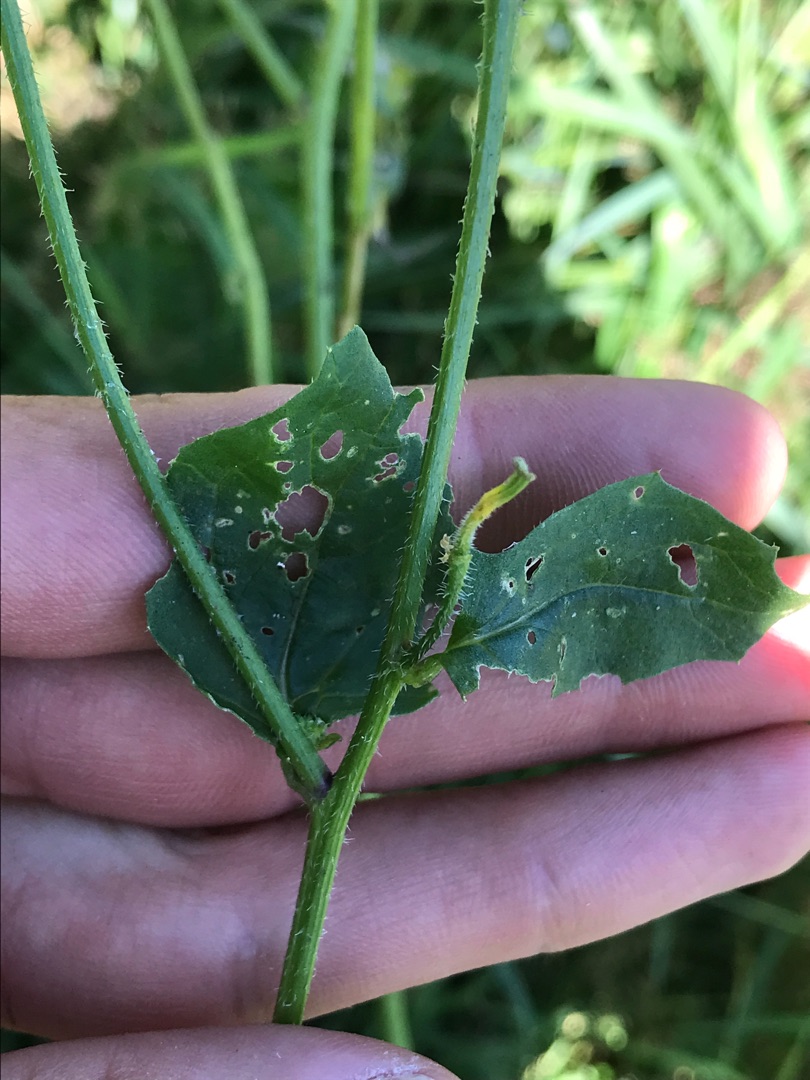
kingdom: Plantae
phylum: Tracheophyta
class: Magnoliopsida
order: Brassicales
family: Brassicaceae
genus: Sinapis
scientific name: Sinapis arvensis
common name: Ager-sennep
